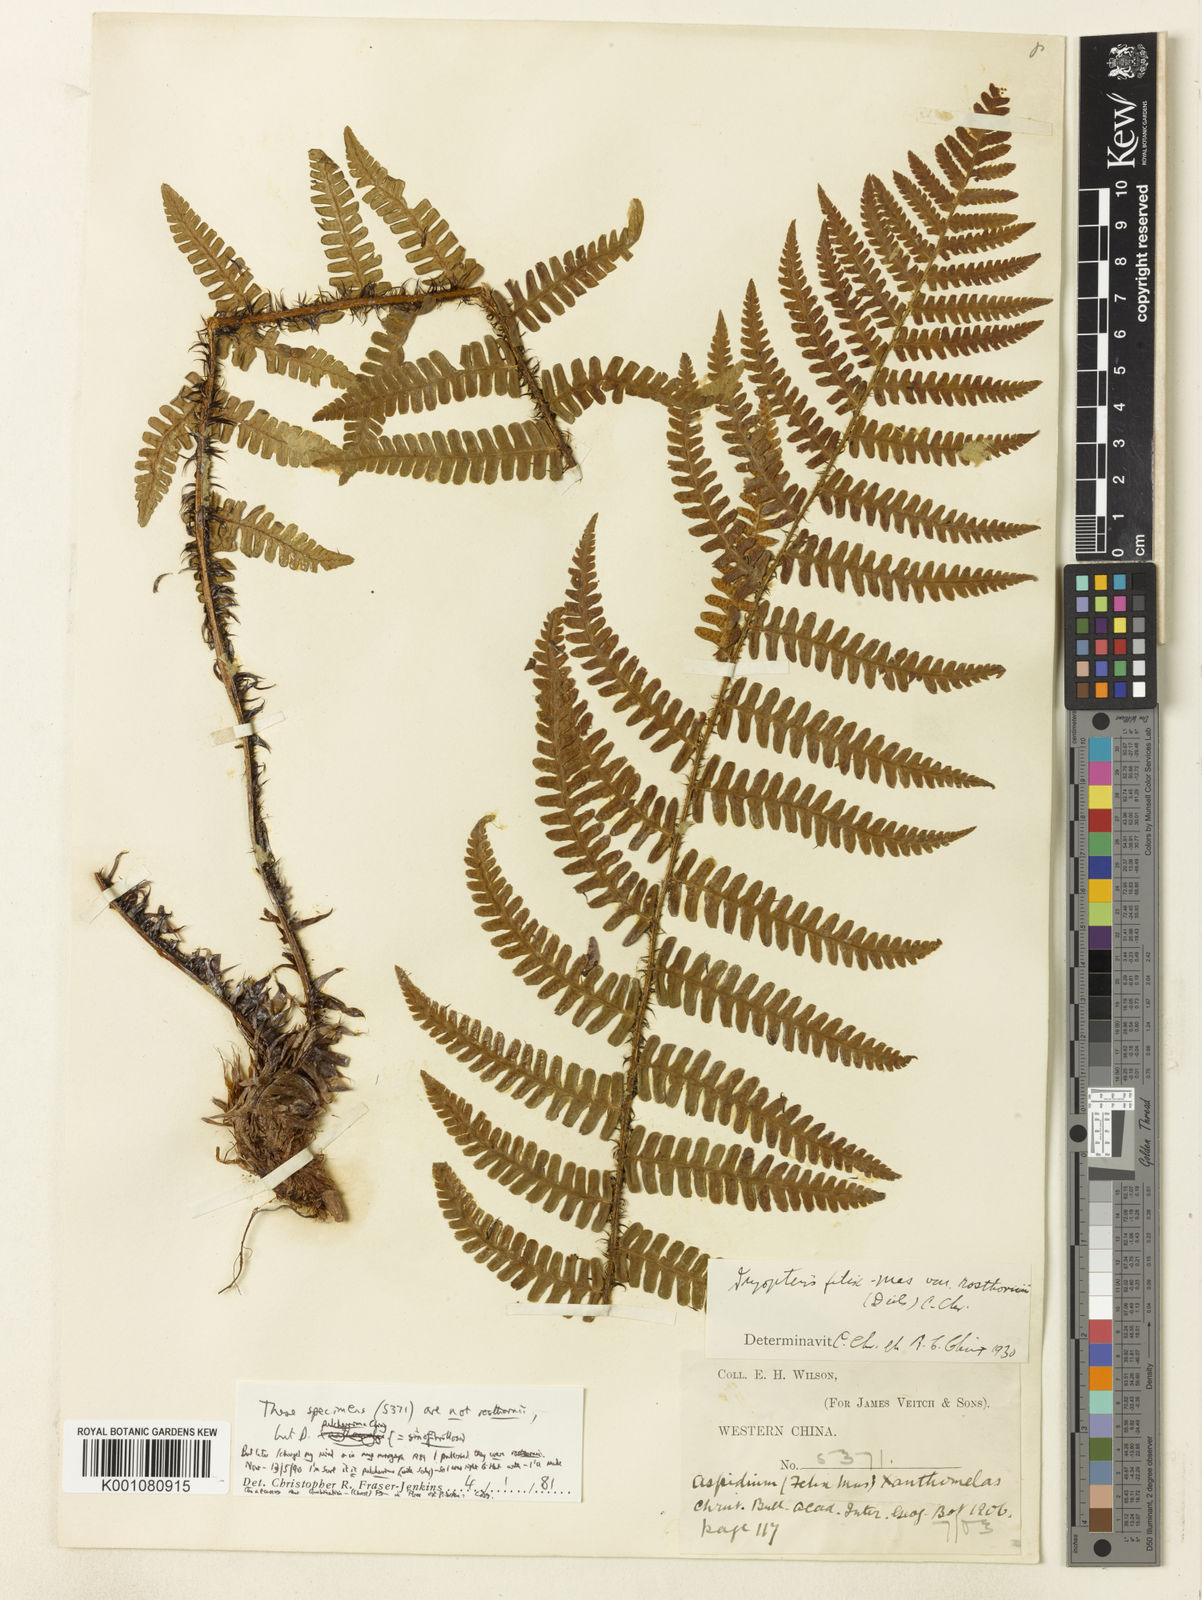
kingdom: Plantae
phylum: Tracheophyta
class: Polypodiopsida
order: Polypodiales
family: Dryopteridaceae
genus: Dryopteris
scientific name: Dryopteris rosthornii
